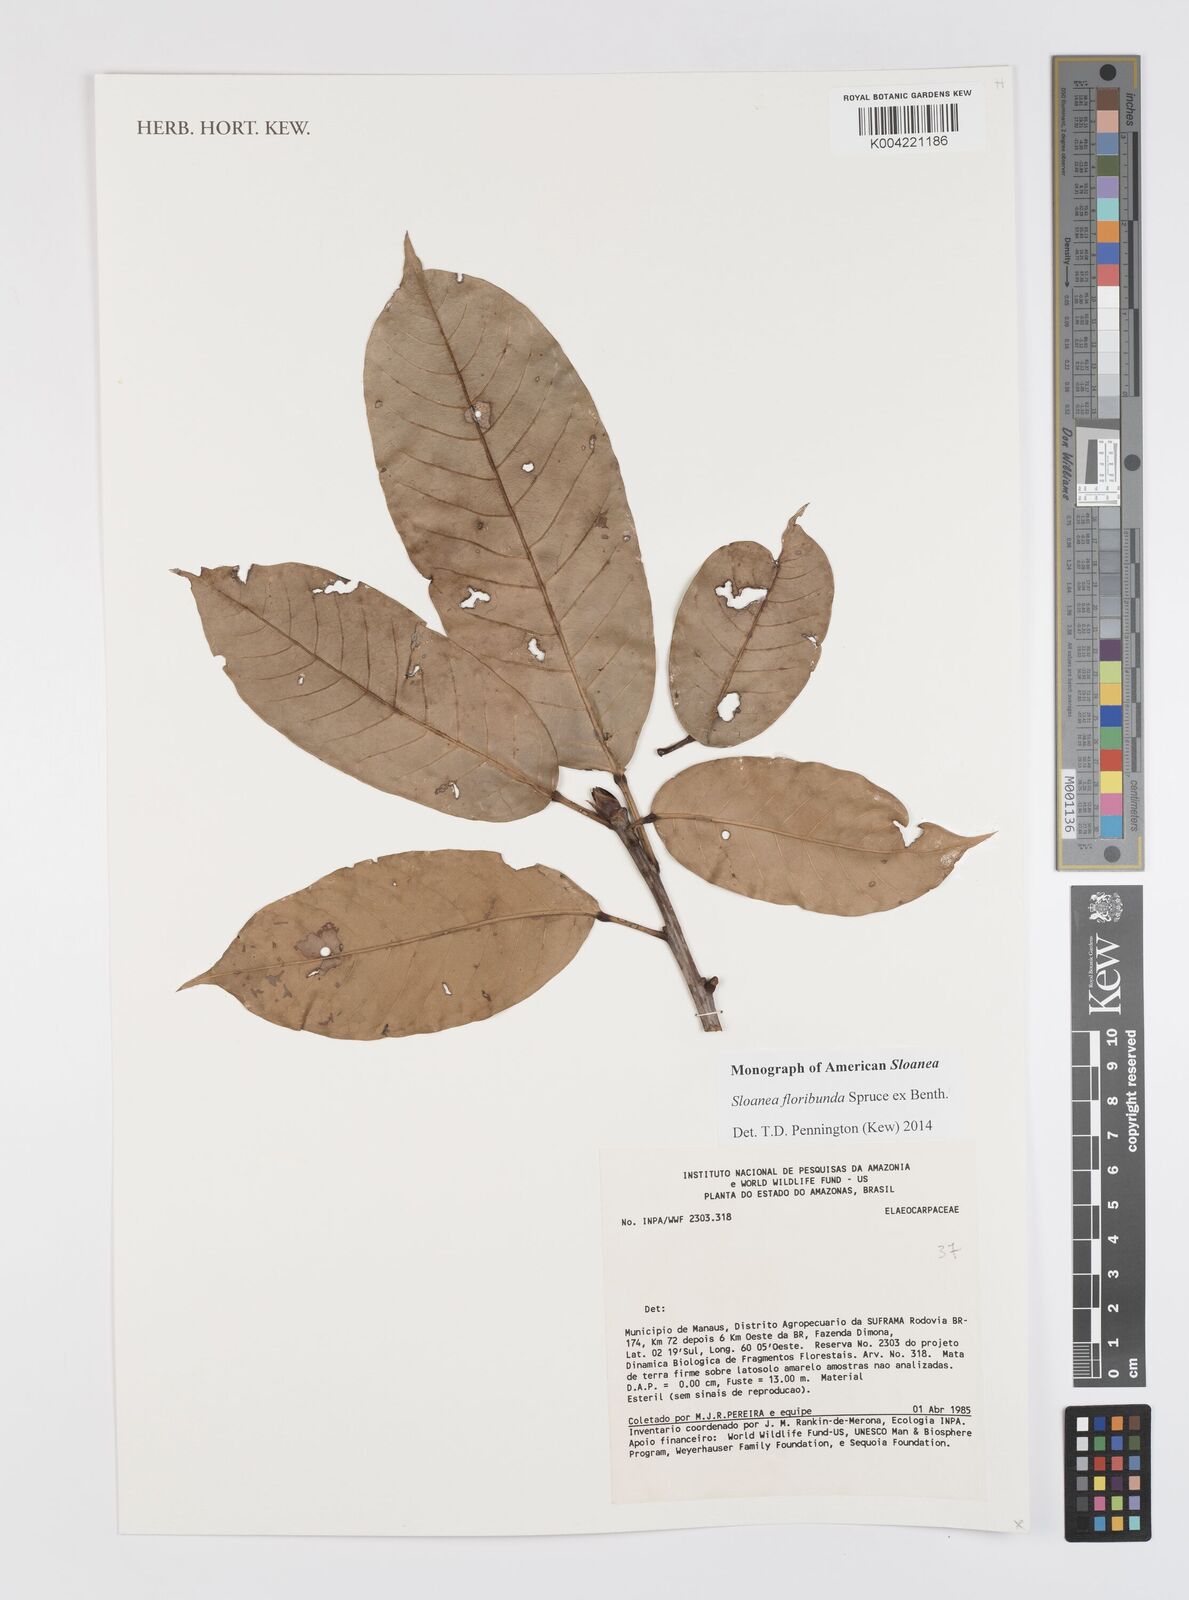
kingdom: Plantae
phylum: Tracheophyta
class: Magnoliopsida
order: Oxalidales
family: Elaeocarpaceae
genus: Sloanea
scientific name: Sloanea floribunda
